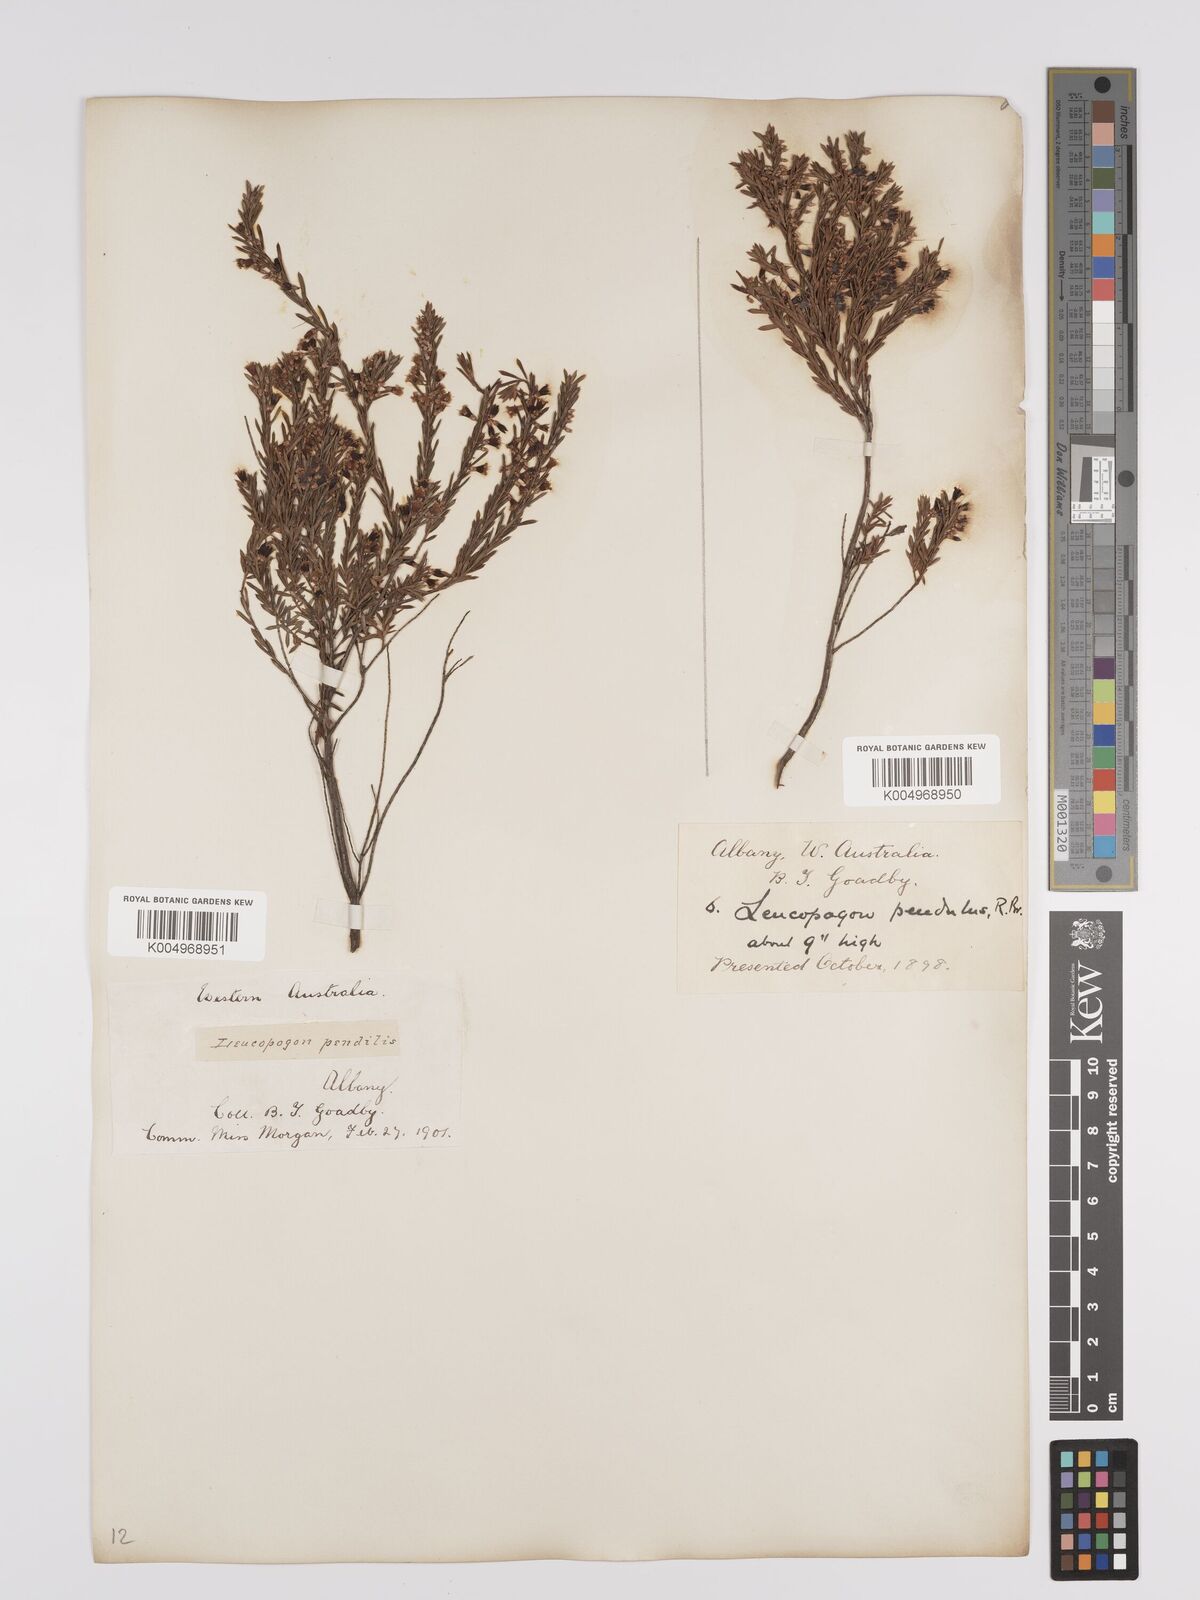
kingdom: Plantae
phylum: Tracheophyta
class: Magnoliopsida
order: Ericales
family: Ericaceae
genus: Styphelia
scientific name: Styphelia pendula
